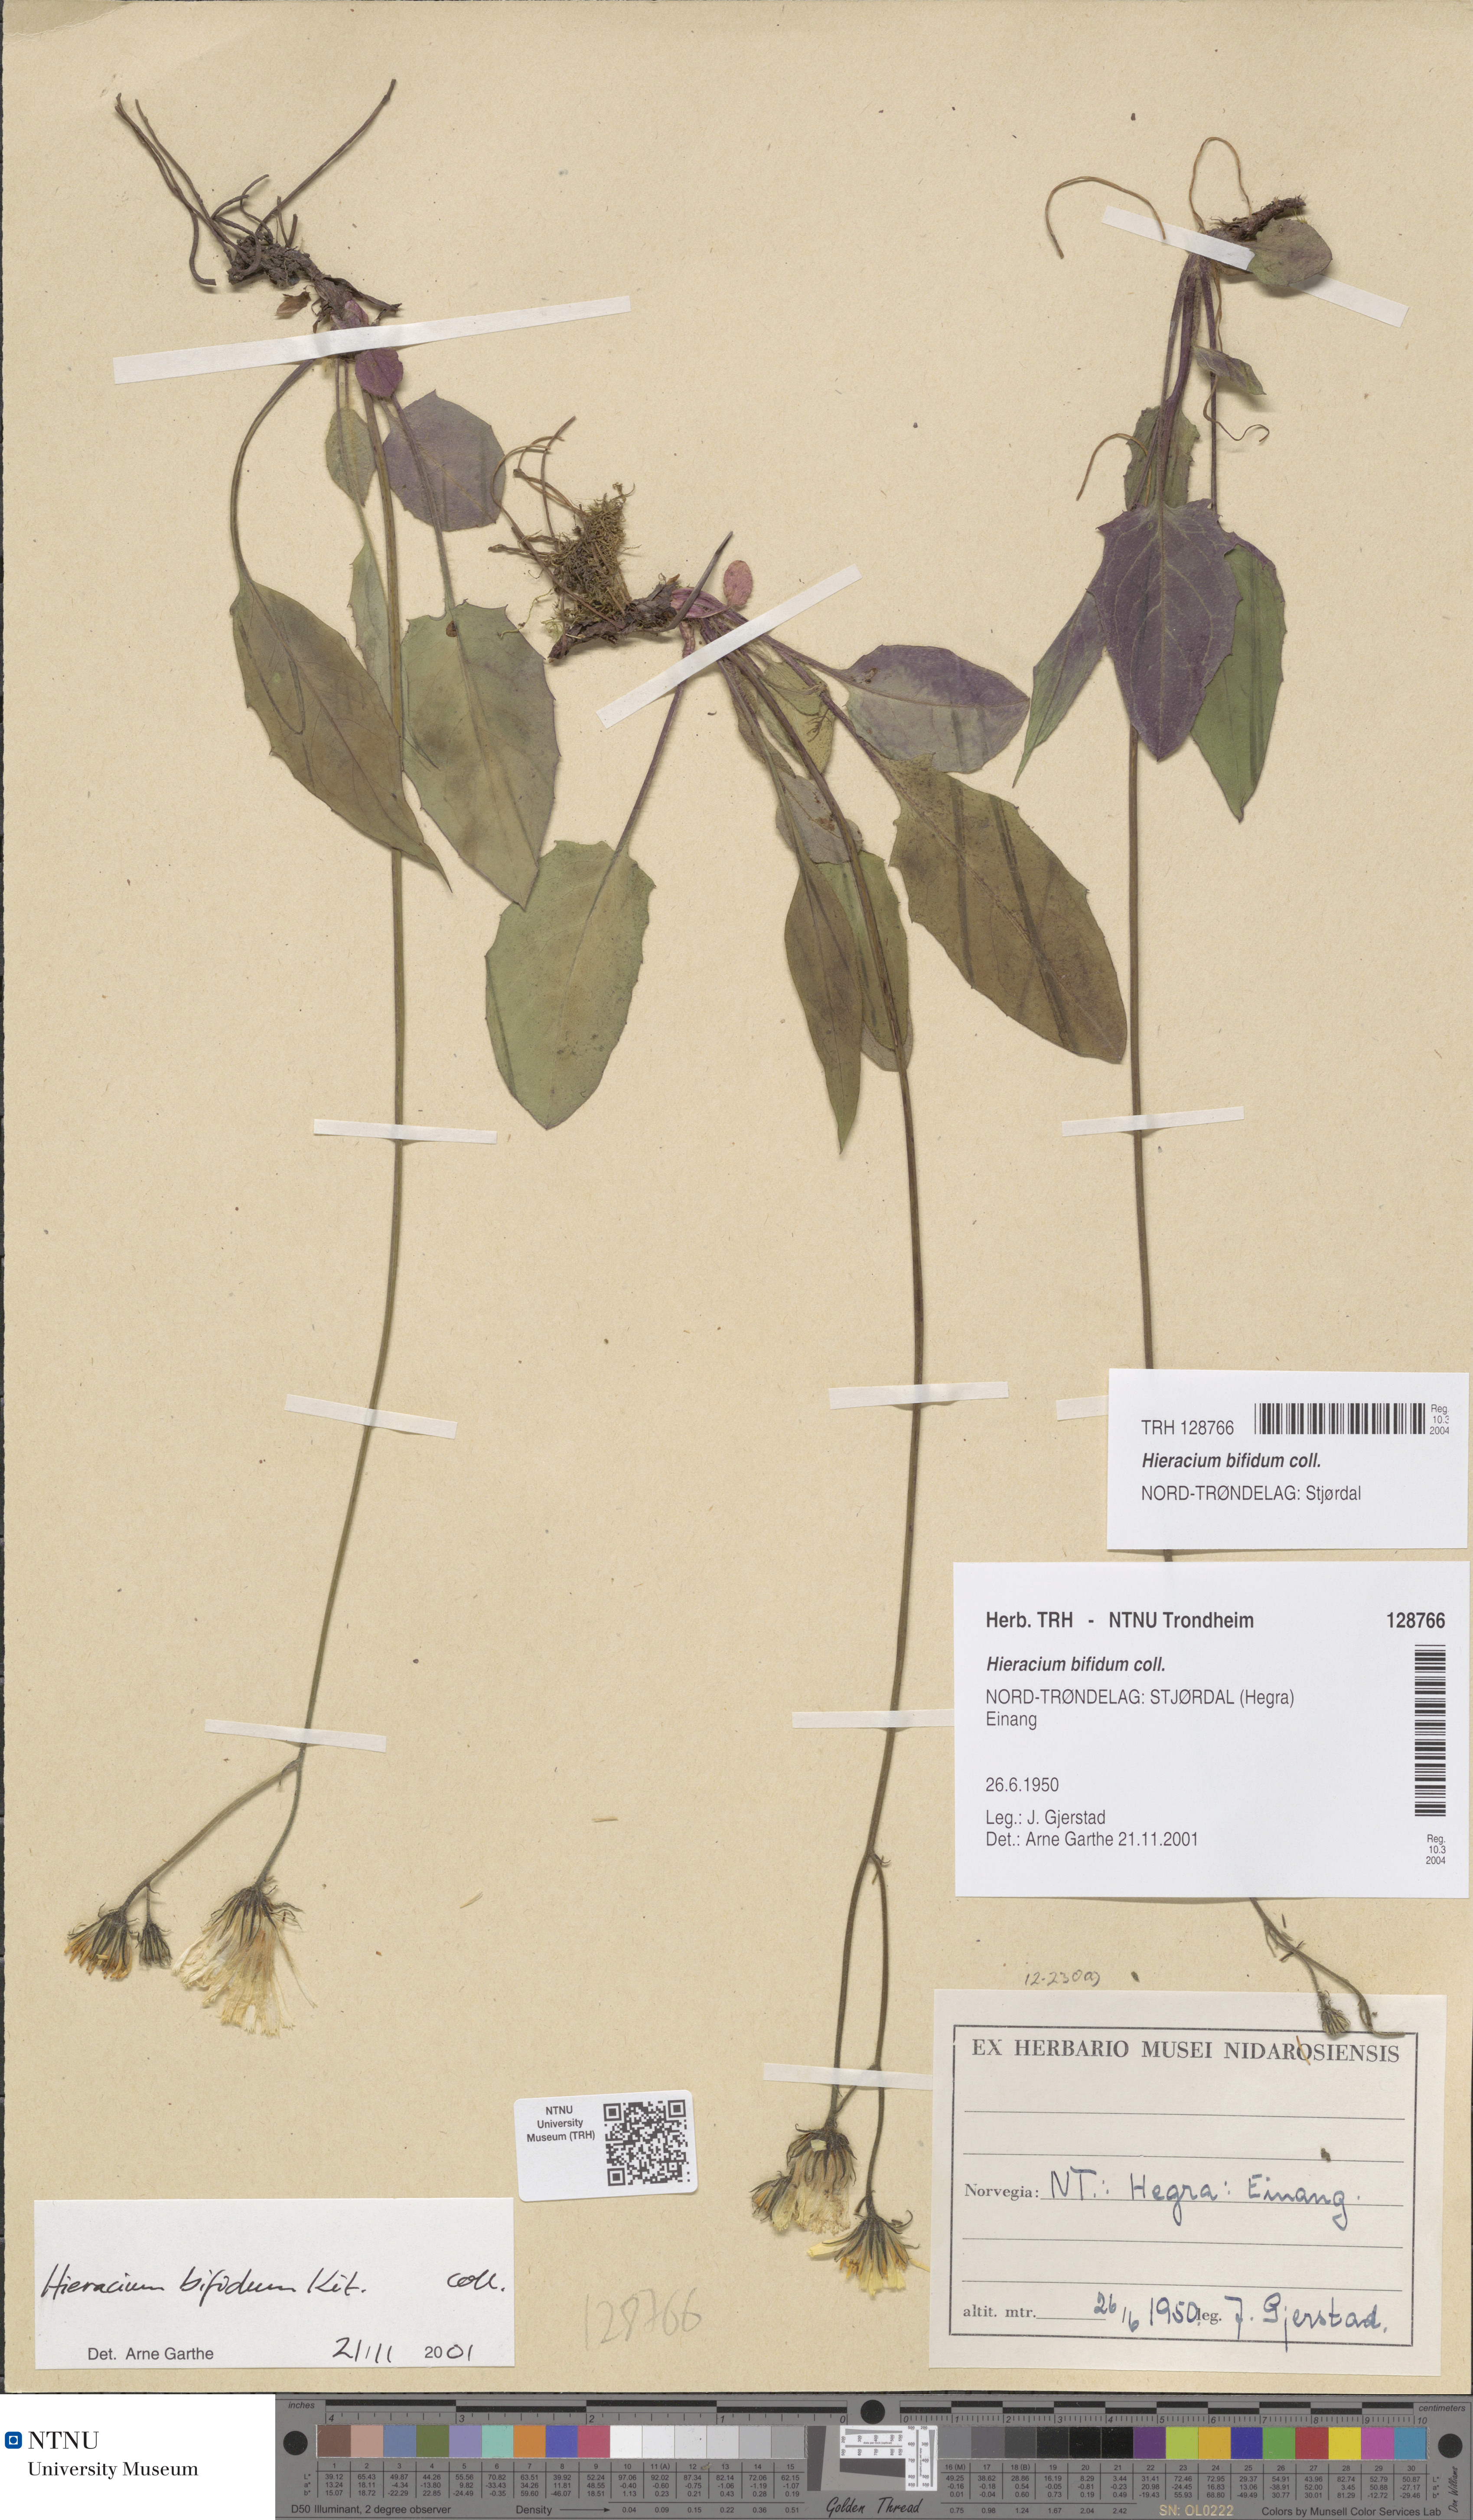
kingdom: Plantae
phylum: Tracheophyta
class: Magnoliopsida
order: Asterales
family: Asteraceae
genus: Hieracium
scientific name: Hieracium bifidum
